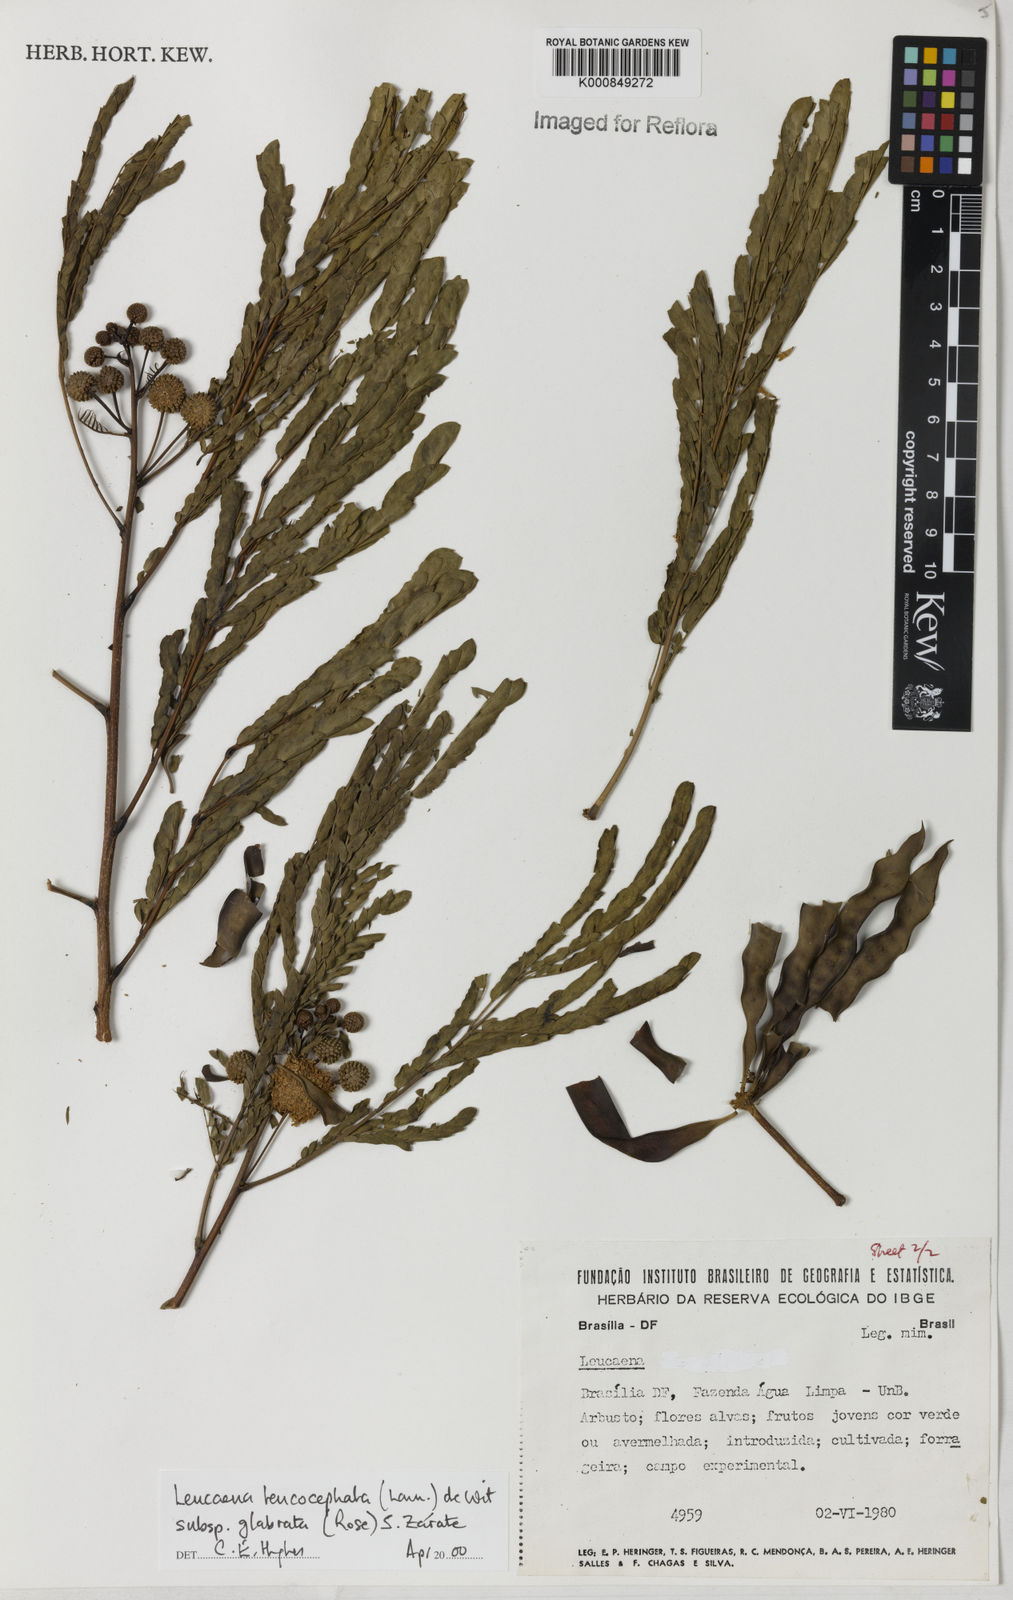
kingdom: Plantae
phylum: Tracheophyta
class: Magnoliopsida
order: Fabales
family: Fabaceae
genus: Leucaena
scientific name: Leucaena leucocephala
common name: White leadtree
